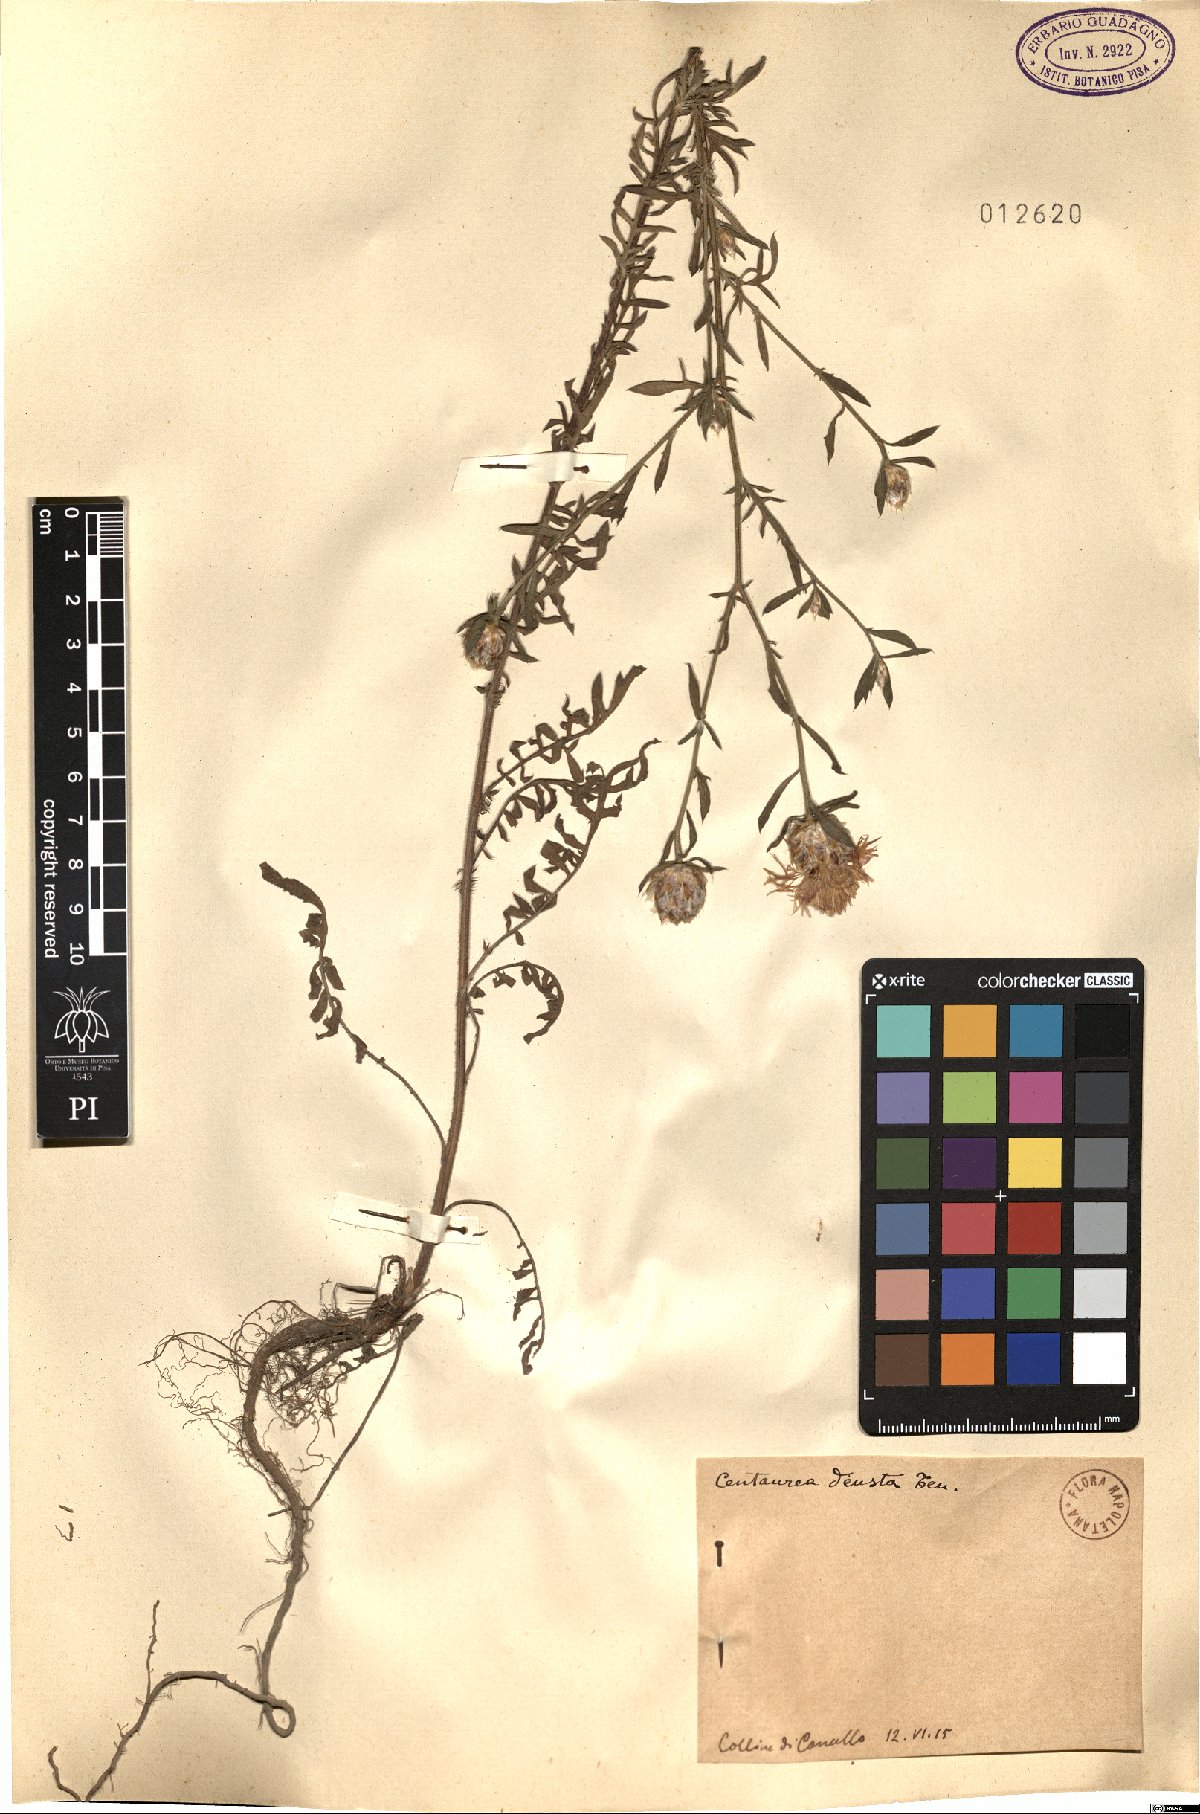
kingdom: Plantae
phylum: Tracheophyta
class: Magnoliopsida
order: Asterales
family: Asteraceae
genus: Centaurea
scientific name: Centaurea deusta
